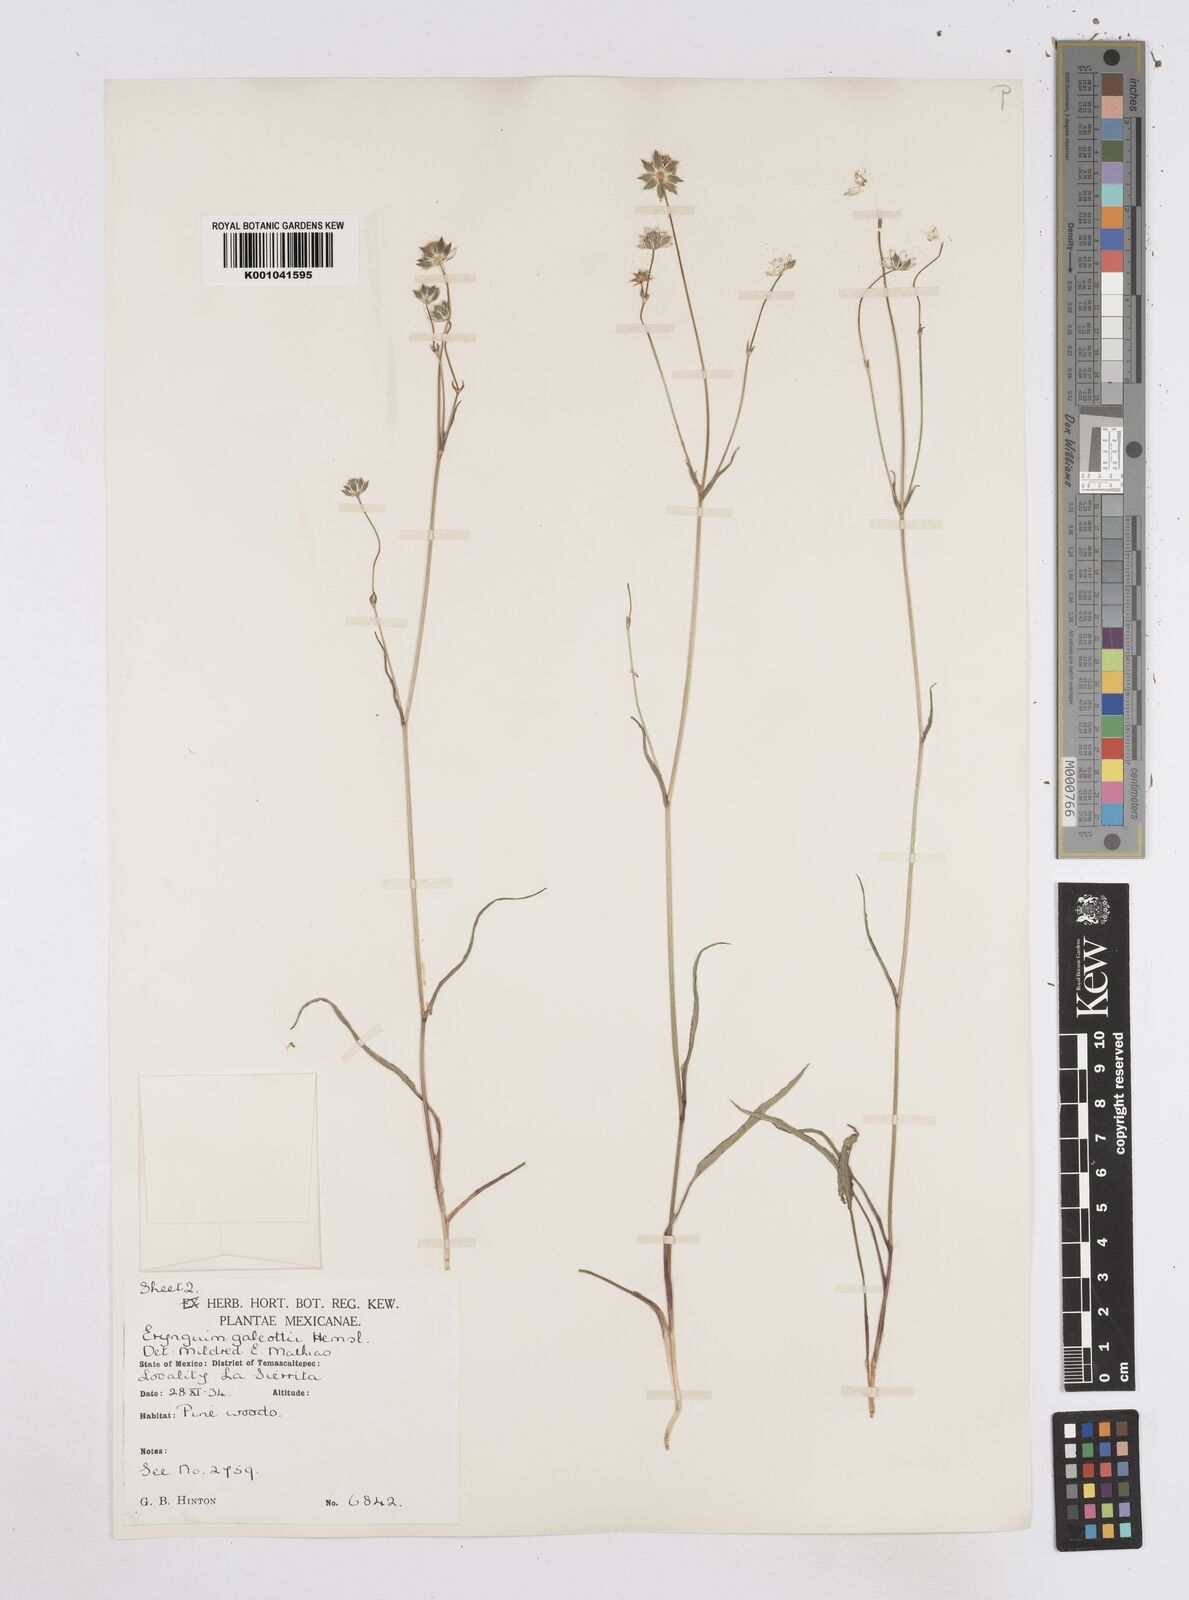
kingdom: Plantae
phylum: Tracheophyta
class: Magnoliopsida
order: Apiales
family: Apiaceae
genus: Eryngium
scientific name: Eryngium galeottii
